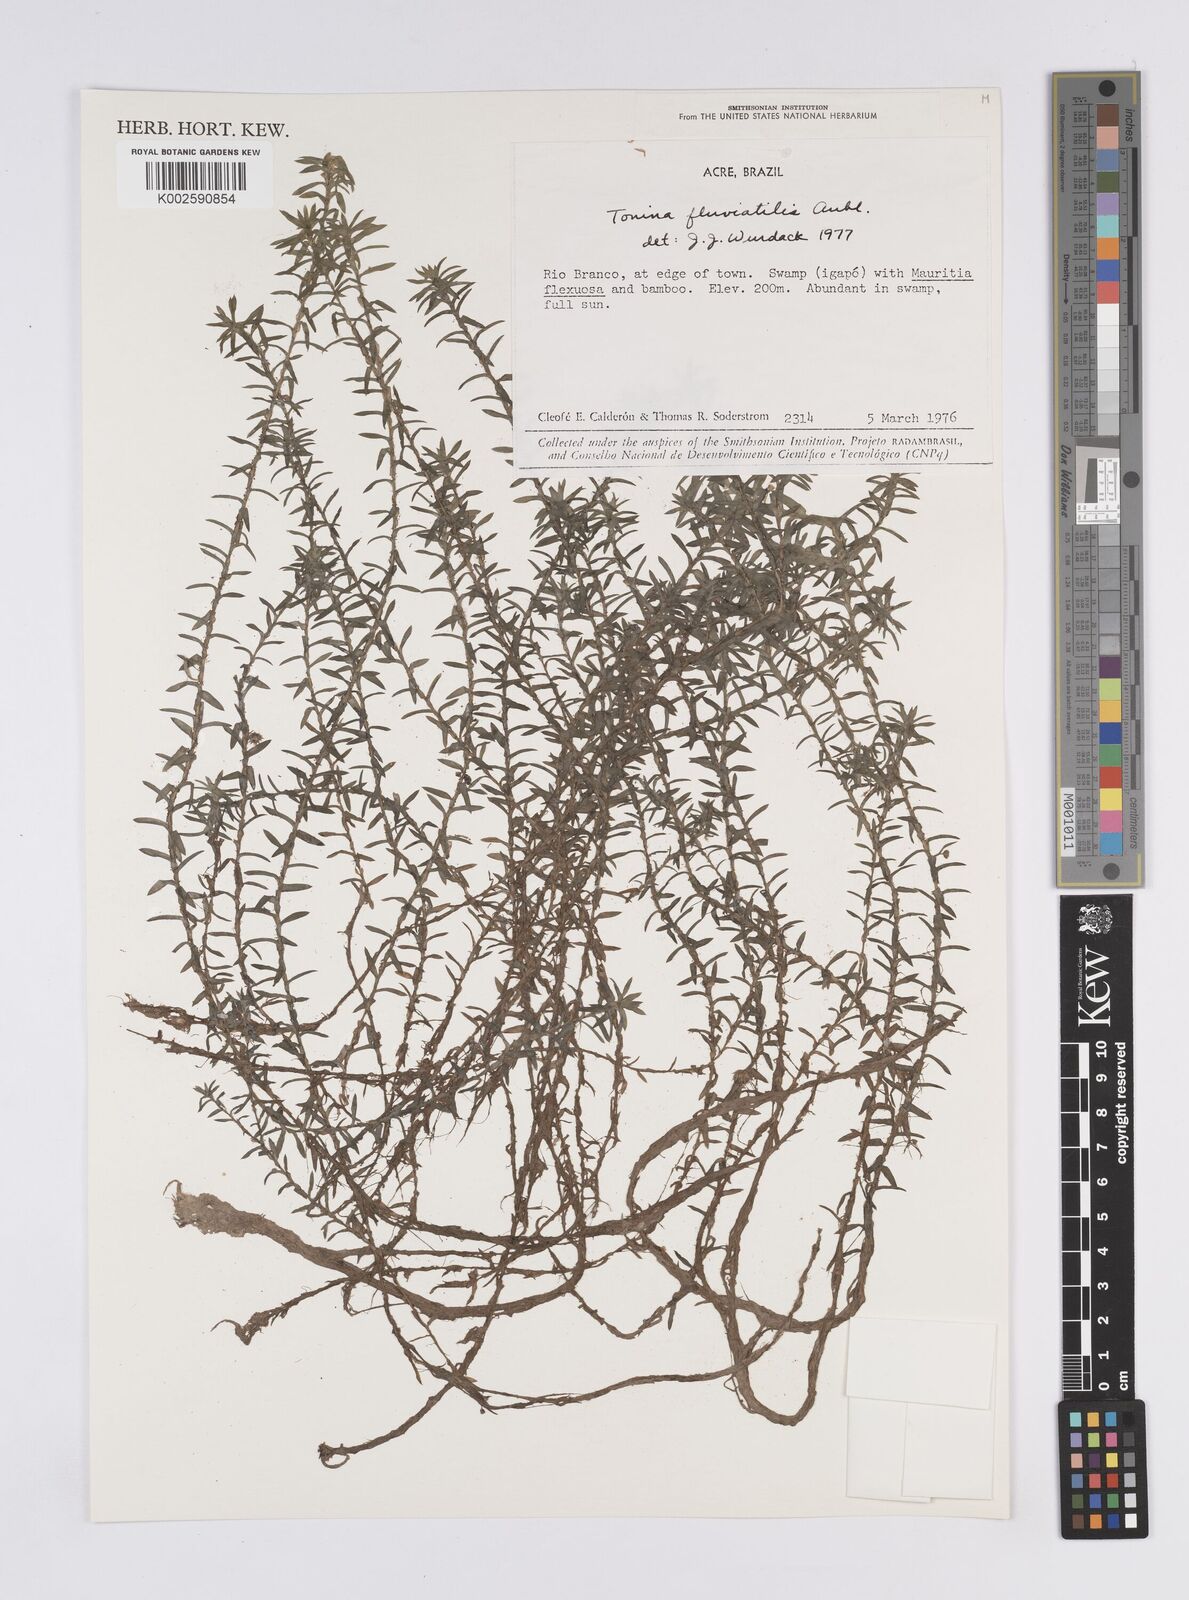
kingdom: Plantae
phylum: Tracheophyta
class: Liliopsida
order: Poales
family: Eriocaulaceae
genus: Paepalanthus
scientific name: Paepalanthus fluviatilis
